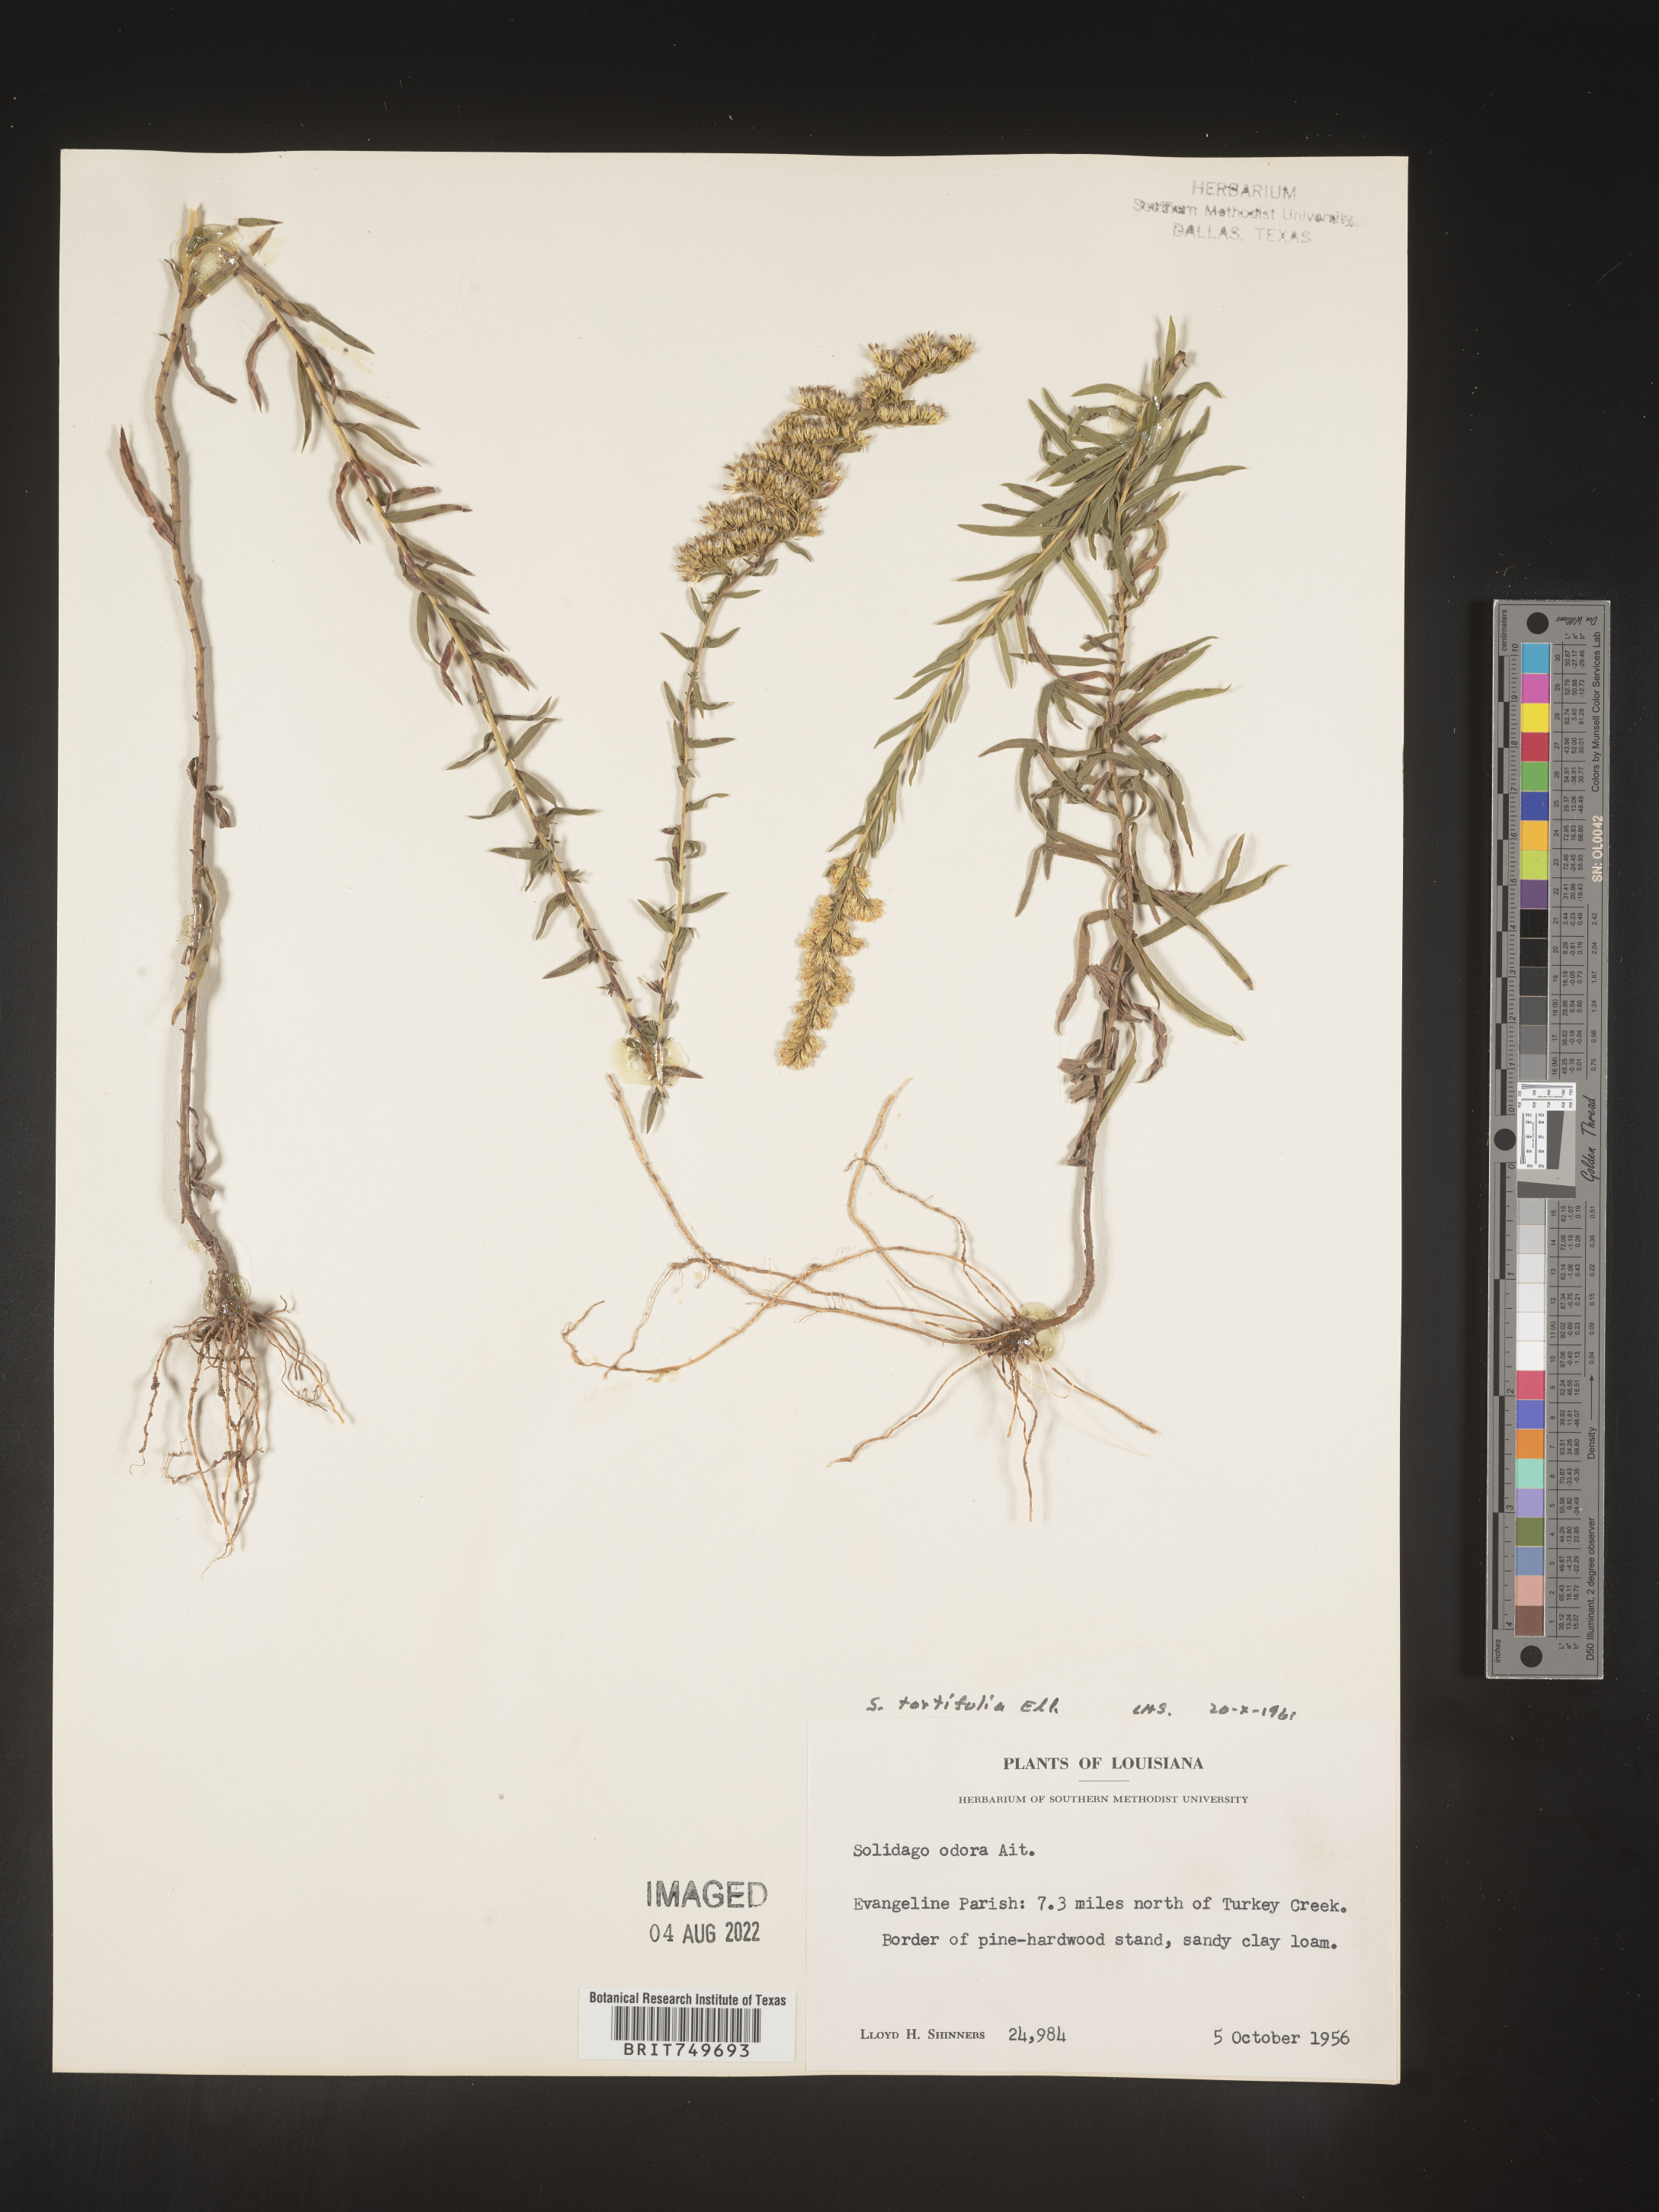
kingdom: Plantae
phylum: Tracheophyta
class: Magnoliopsida
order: Asterales
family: Asteraceae
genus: Solidago
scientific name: Solidago tortifolia
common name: Twisted-leaf goldenrod
